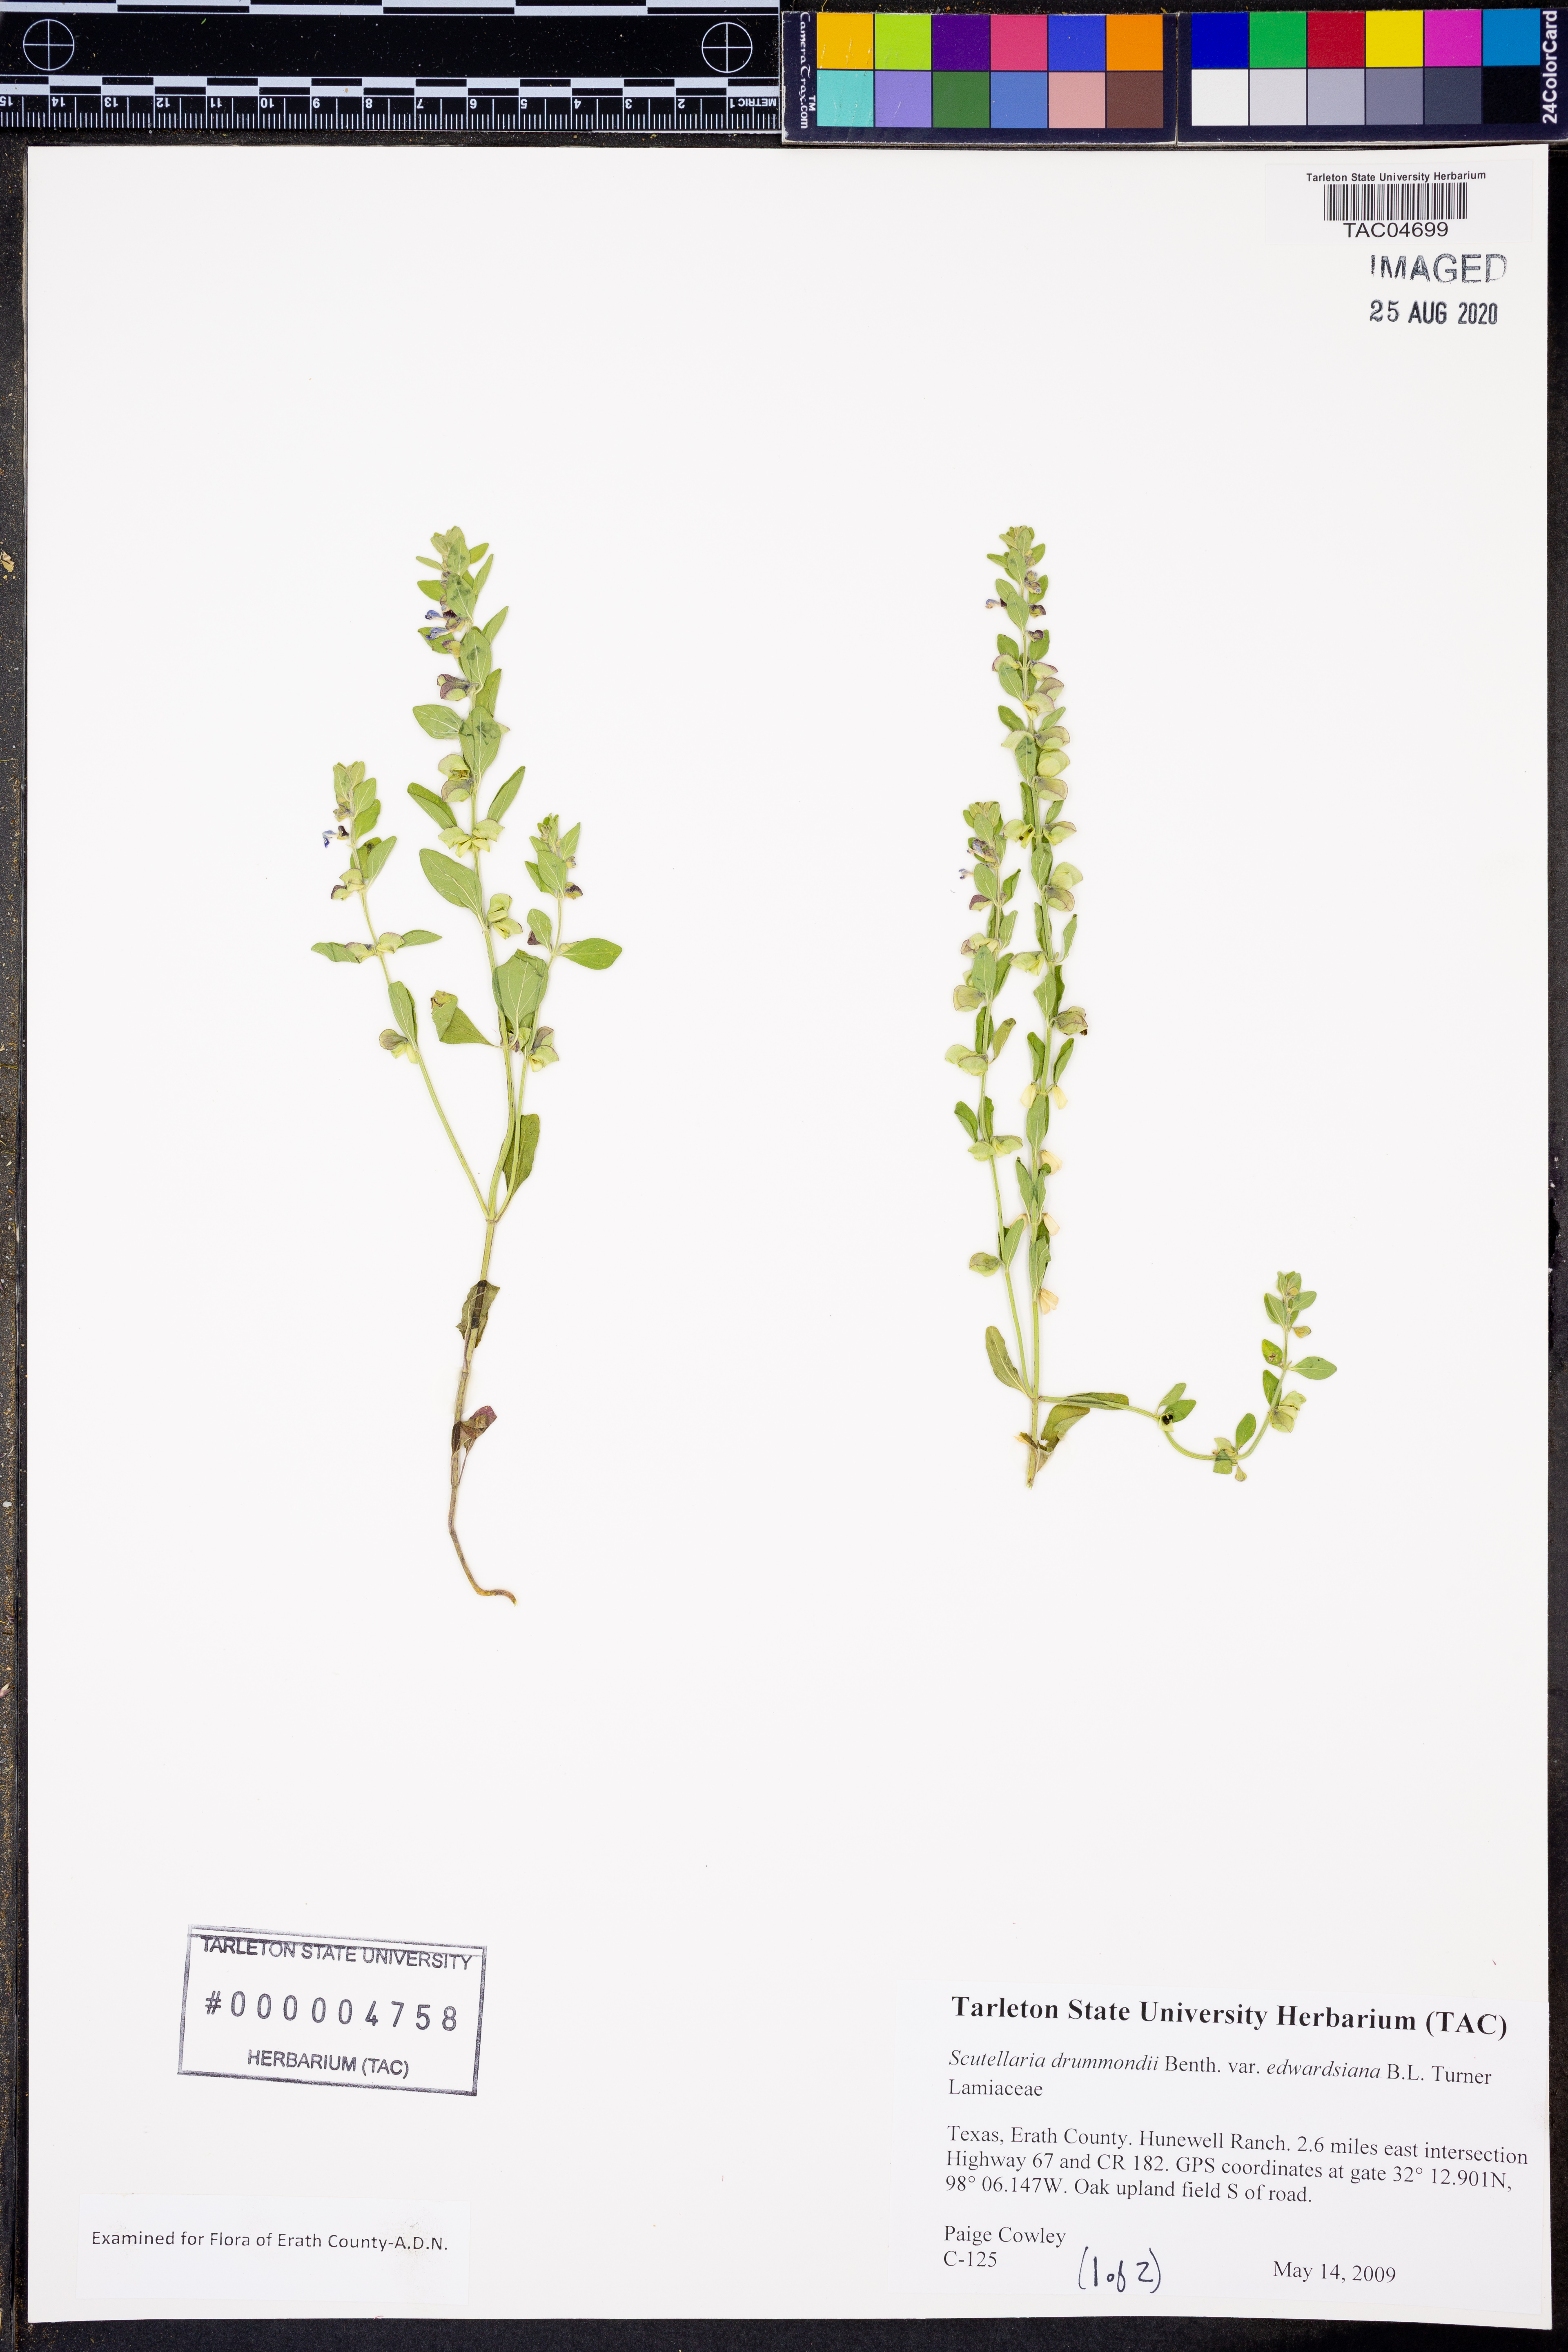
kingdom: Plantae
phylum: Tracheophyta
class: Magnoliopsida
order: Lamiales
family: Lamiaceae
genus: Scutellaria
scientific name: Scutellaria drummondii
